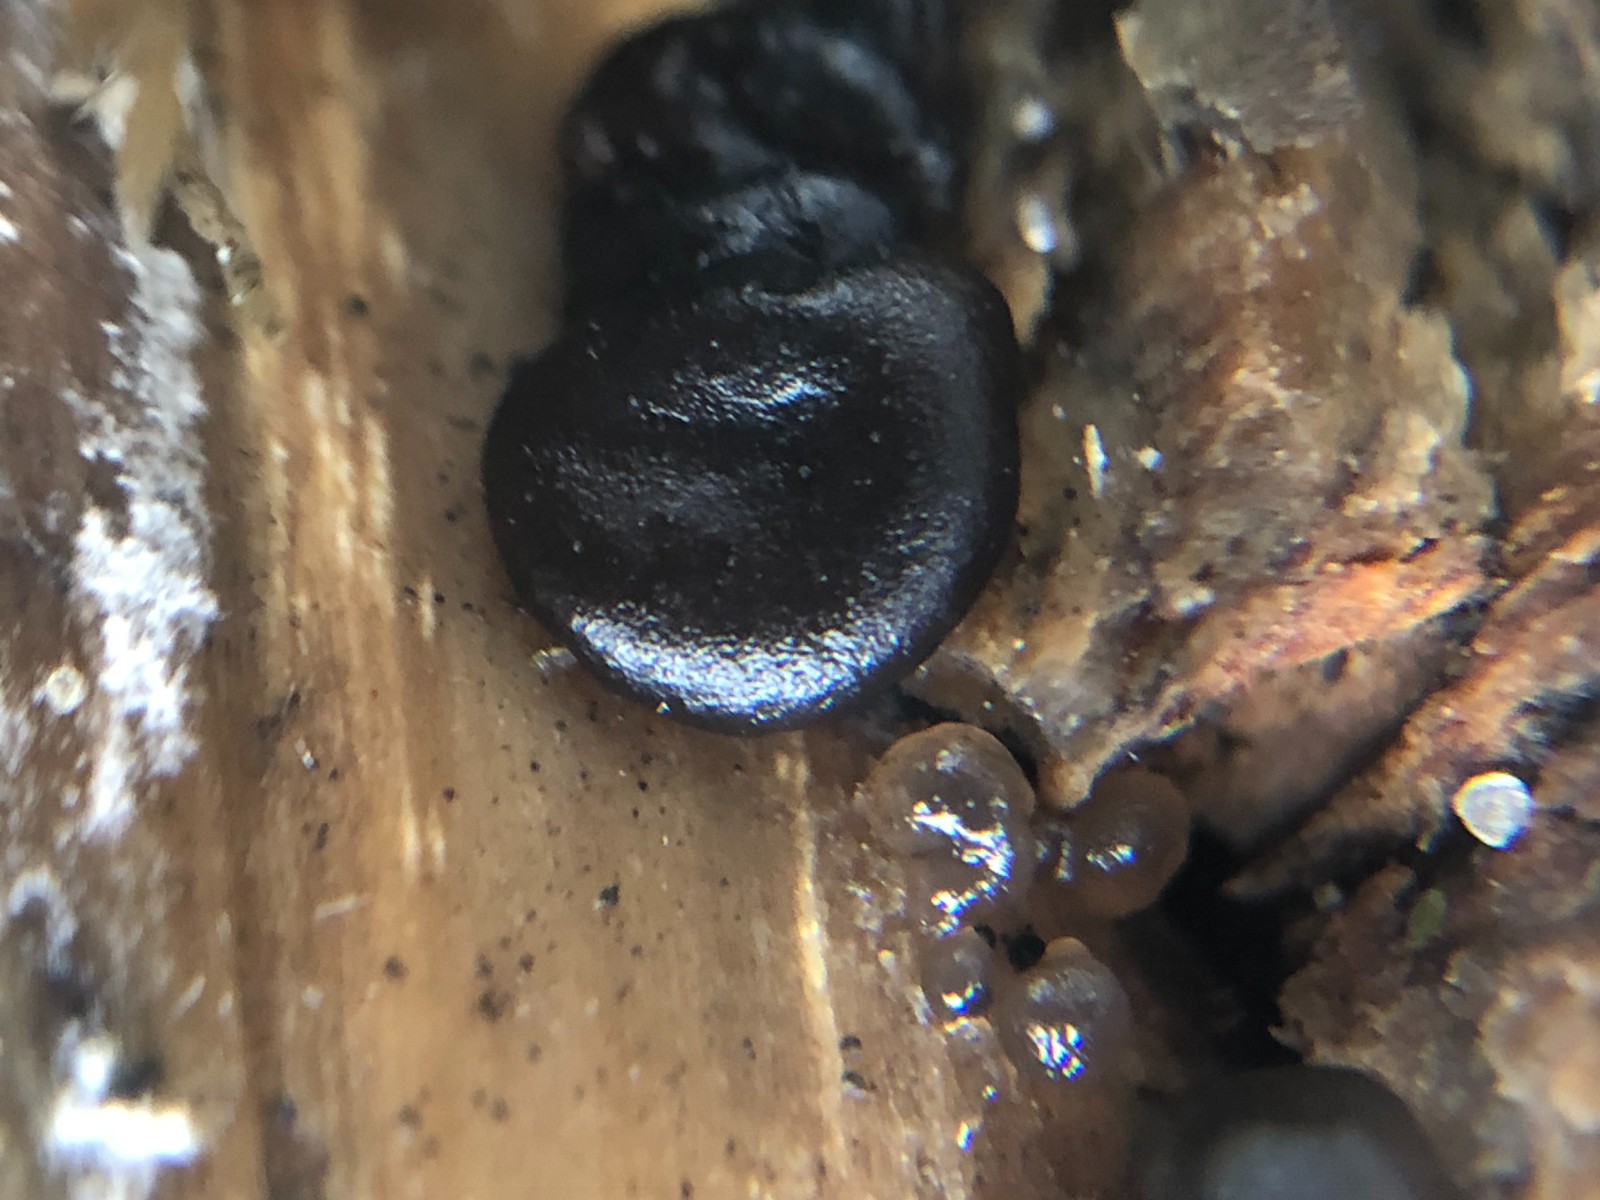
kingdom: Fungi
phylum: Basidiomycota
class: Tremellomycetes
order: Tremellales
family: Exidiaceae
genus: Exidia
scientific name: Exidia
